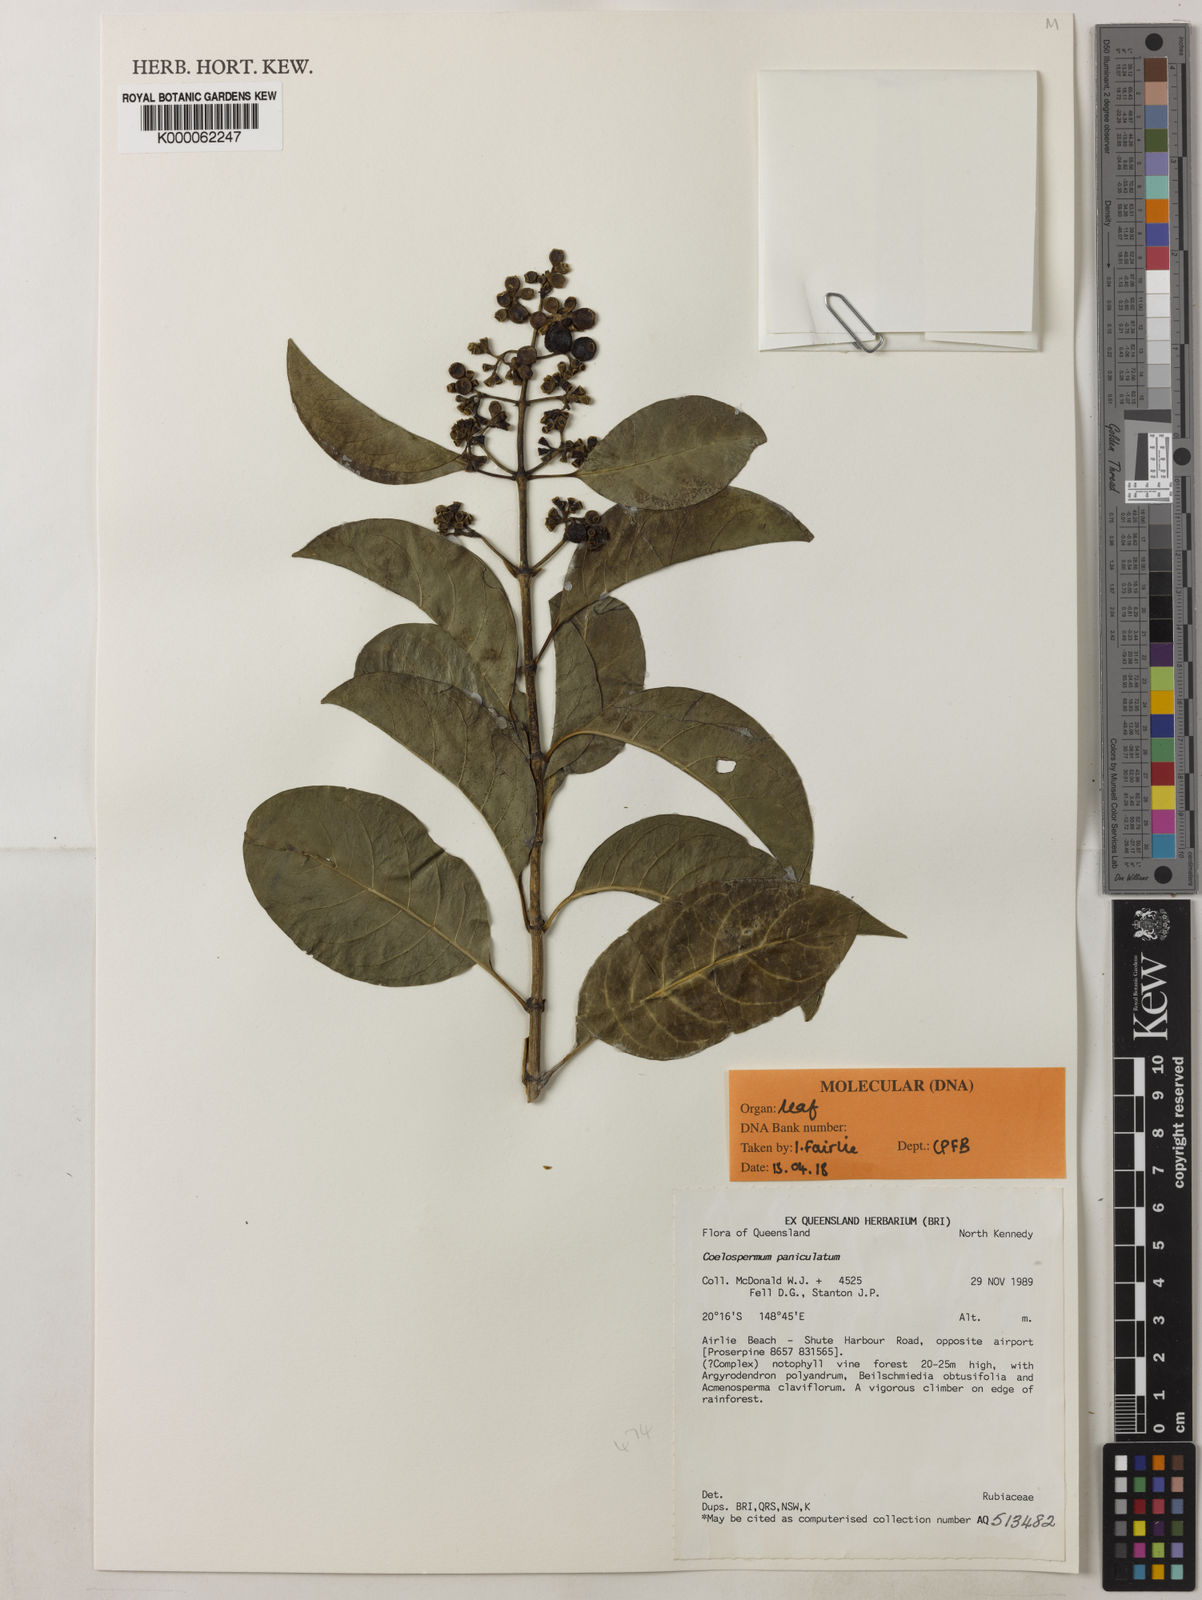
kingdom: Plantae
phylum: Tracheophyta
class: Magnoliopsida
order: Gentianales
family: Rubiaceae
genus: Coelospermum
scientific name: Coelospermum paniculatum
